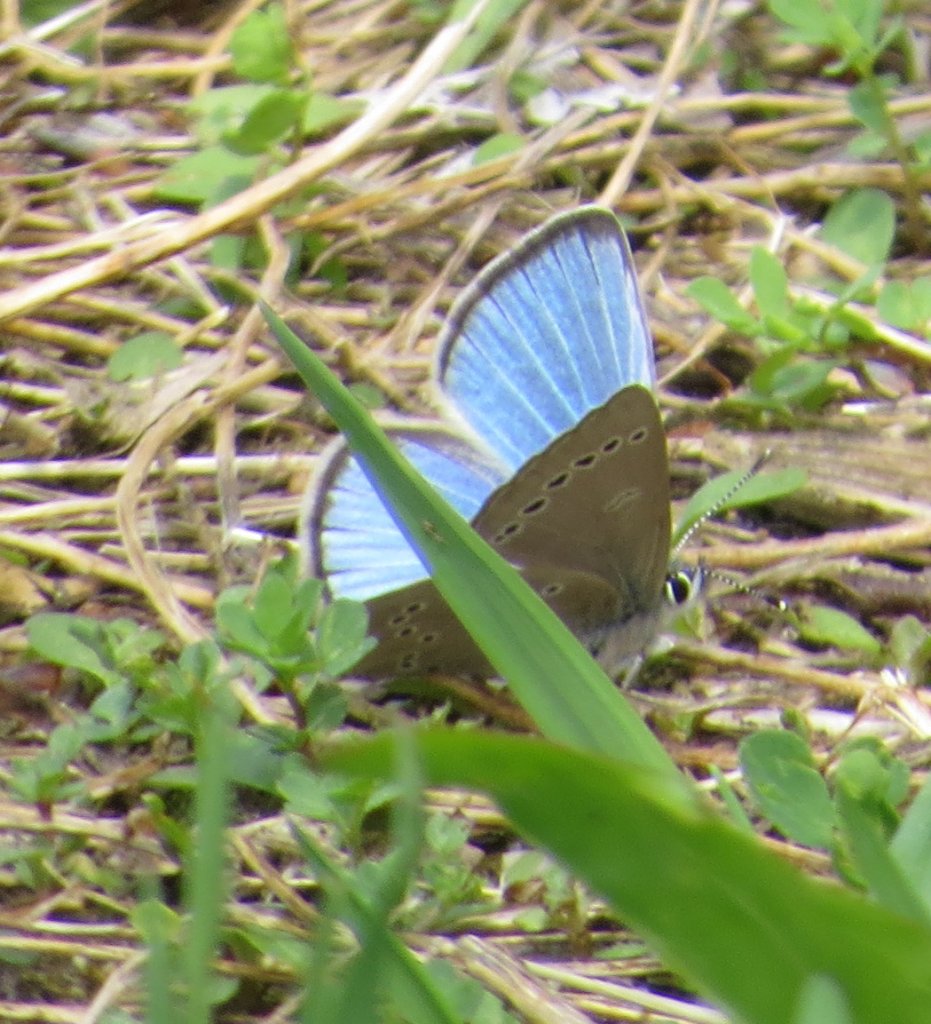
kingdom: Animalia
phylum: Arthropoda
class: Insecta
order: Lepidoptera
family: Lycaenidae
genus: Glaucopsyche
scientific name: Glaucopsyche lygdamus
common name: Silvery Blue
